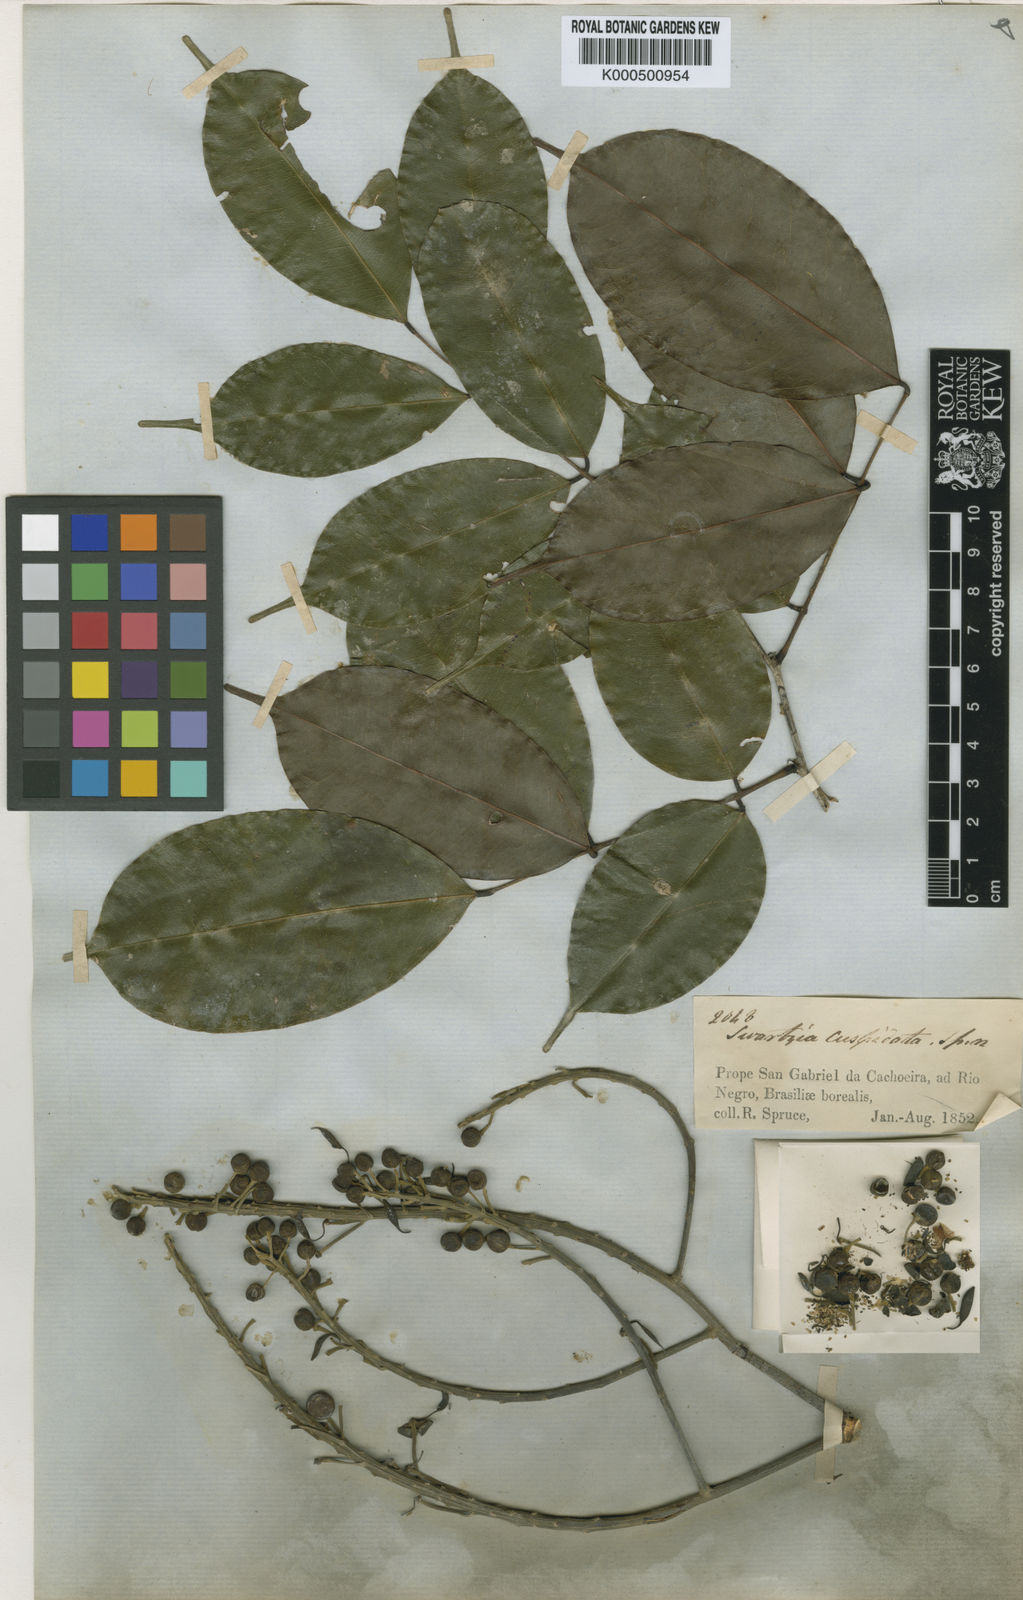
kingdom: Plantae
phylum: Tracheophyta
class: Magnoliopsida
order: Fabales
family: Fabaceae
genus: Swartzia
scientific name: Swartzia cuspidata
